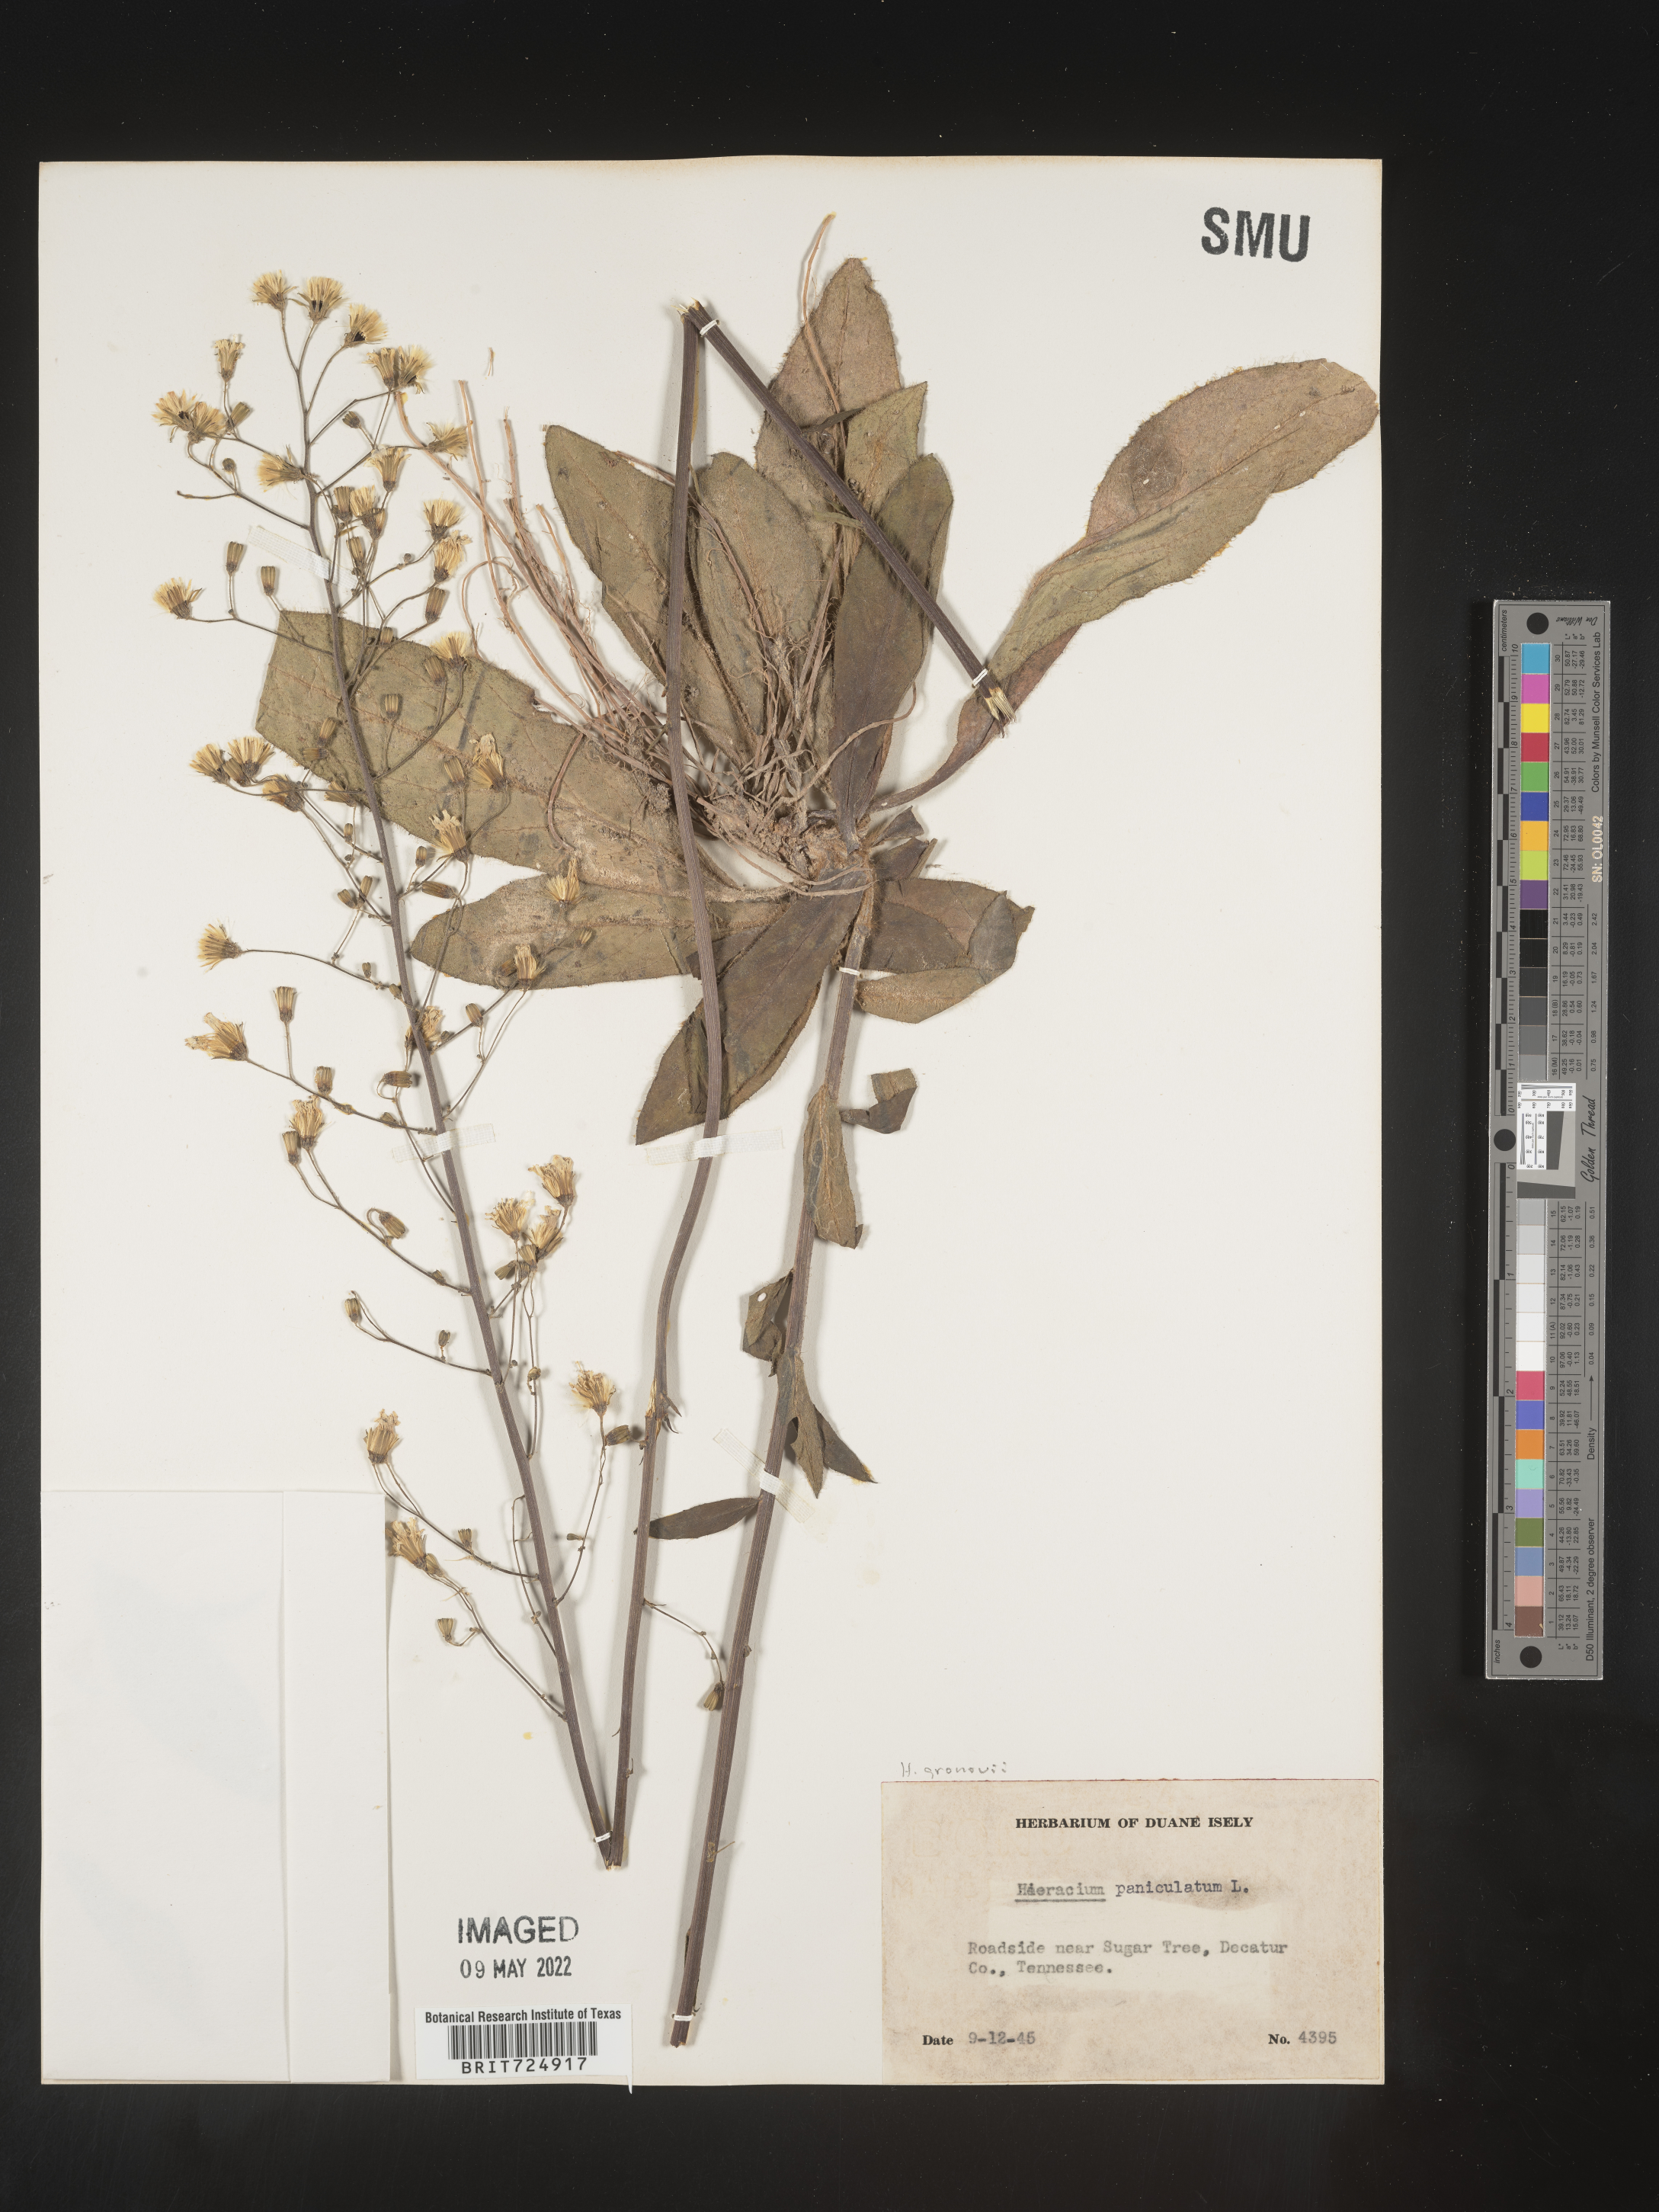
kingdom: Plantae
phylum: Tracheophyta
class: Magnoliopsida
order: Asterales
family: Asteraceae
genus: Hieracium
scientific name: Hieracium gronovii
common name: Beaked hawkweed
